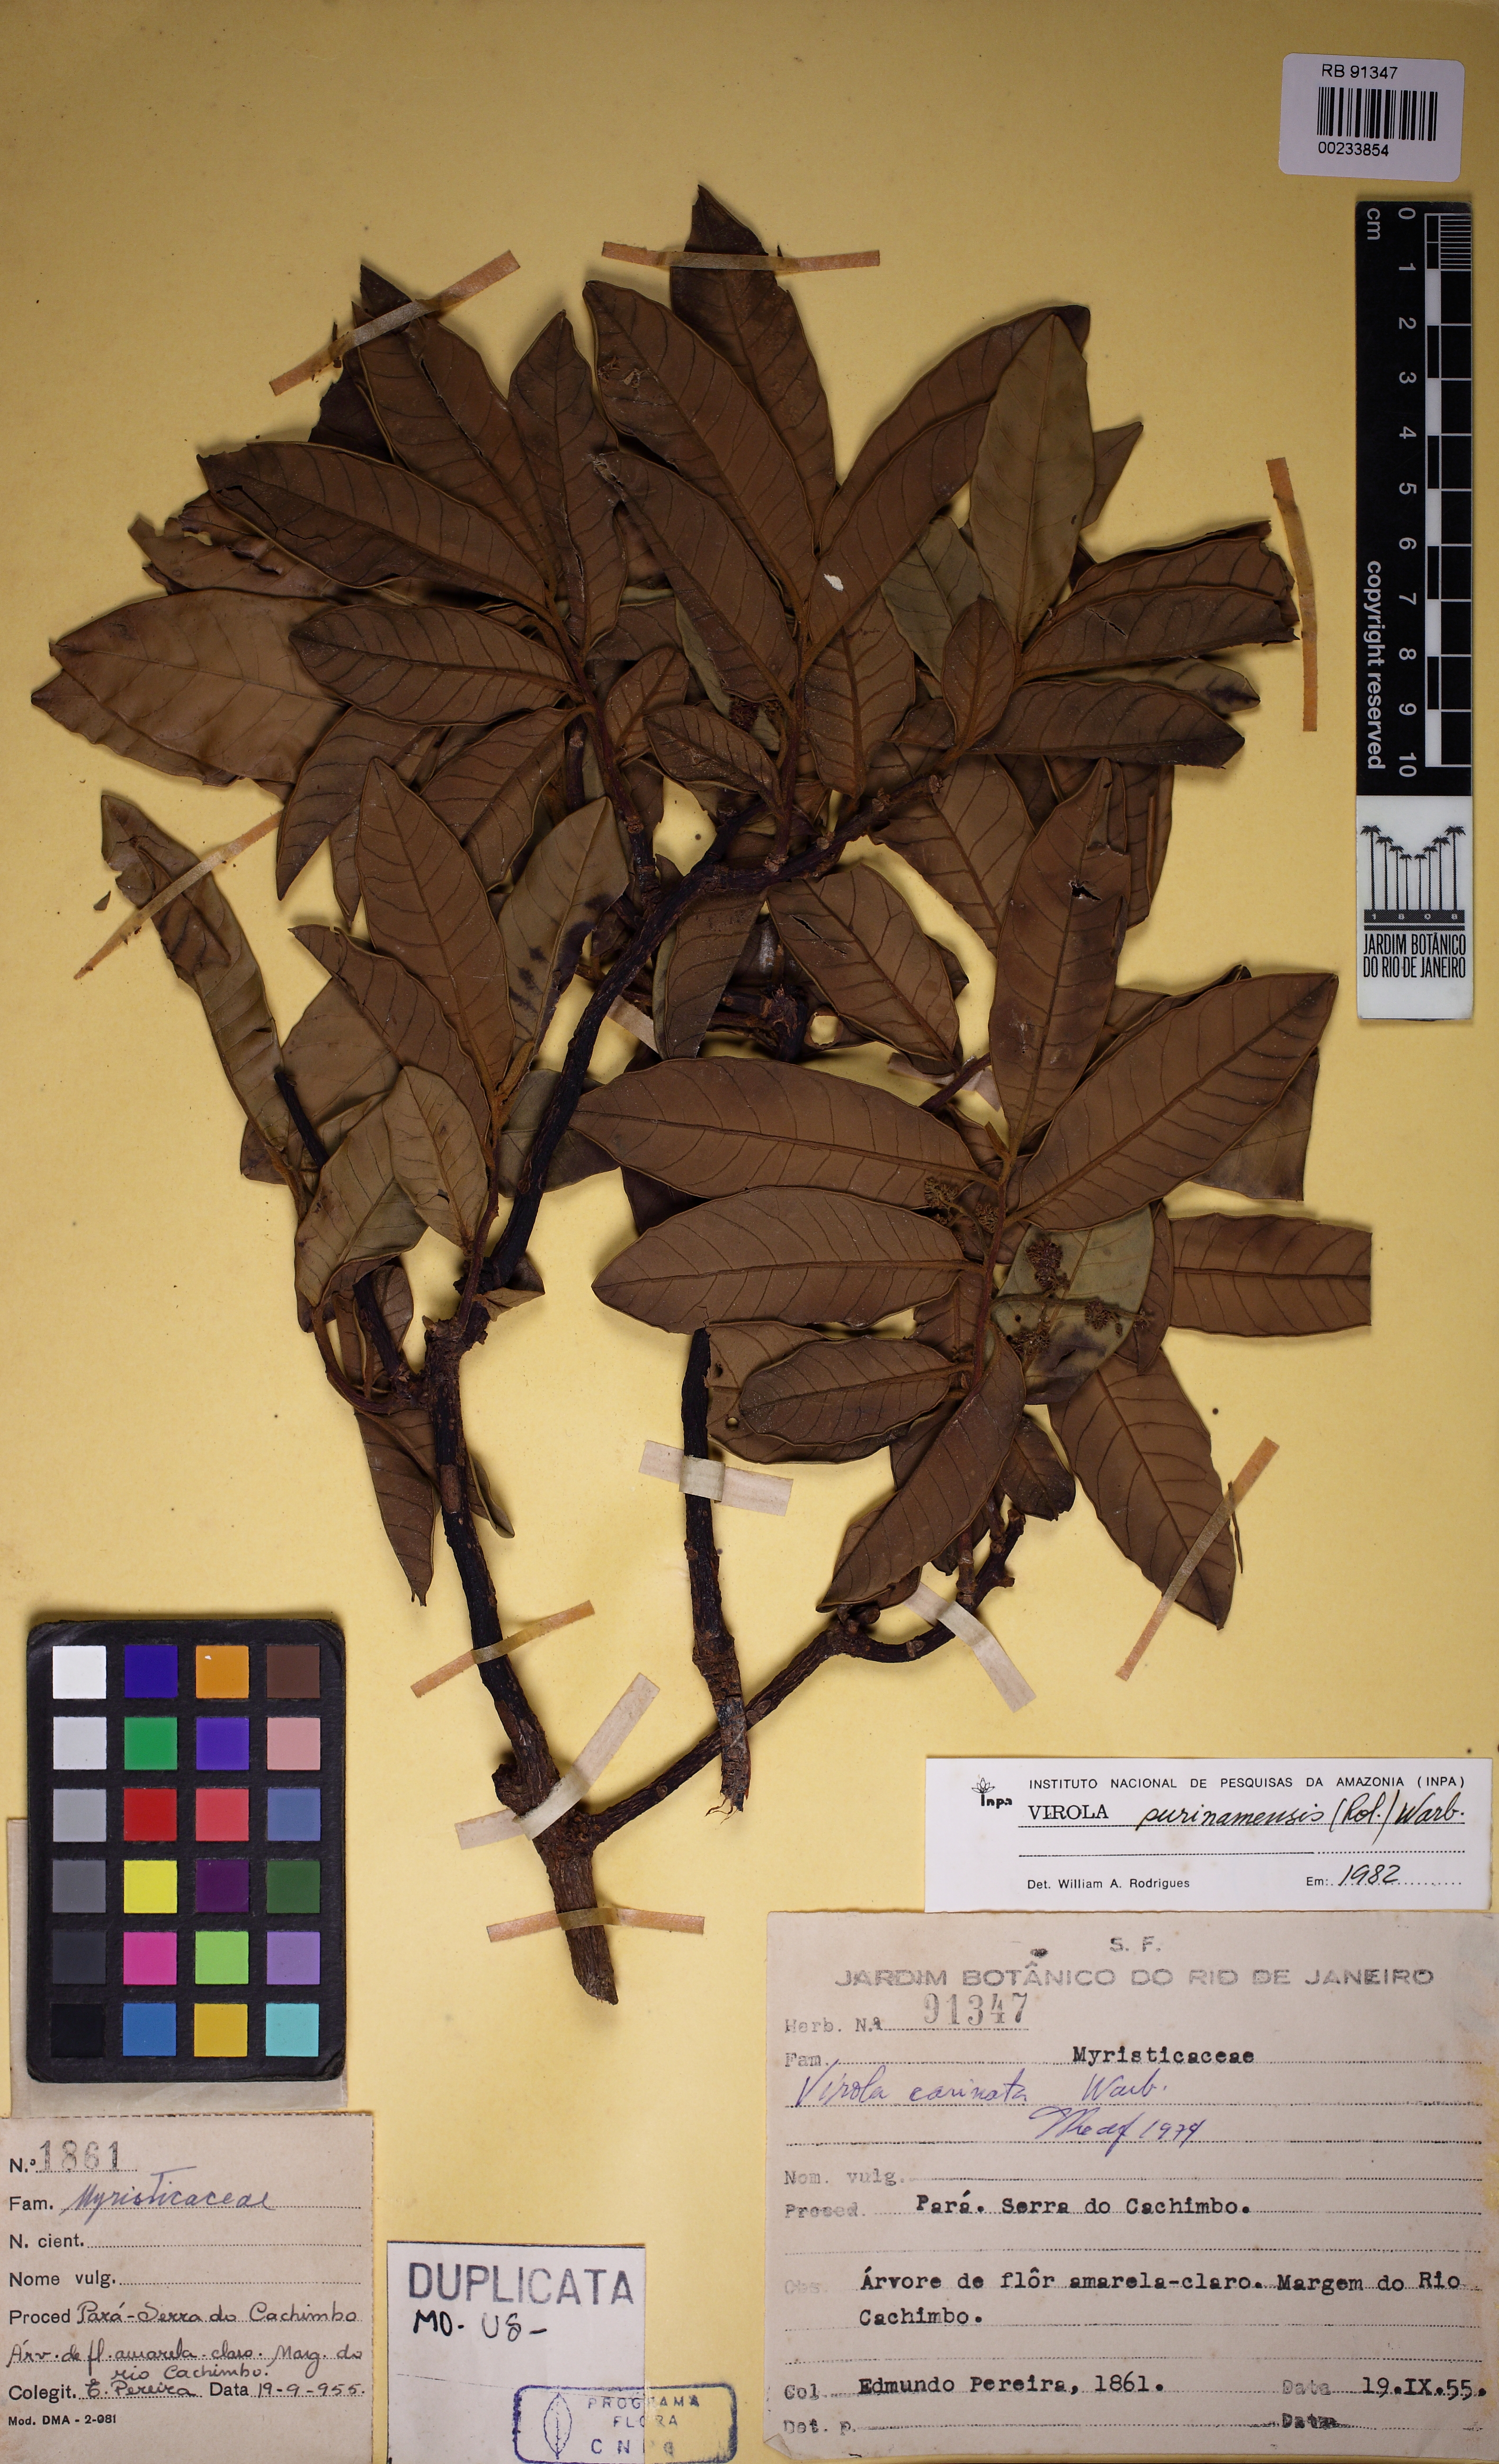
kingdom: Plantae
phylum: Tracheophyta
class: Magnoliopsida
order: Magnoliales
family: Myristicaceae
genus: Virola
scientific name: Virola surinamensis
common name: Baboonwood
